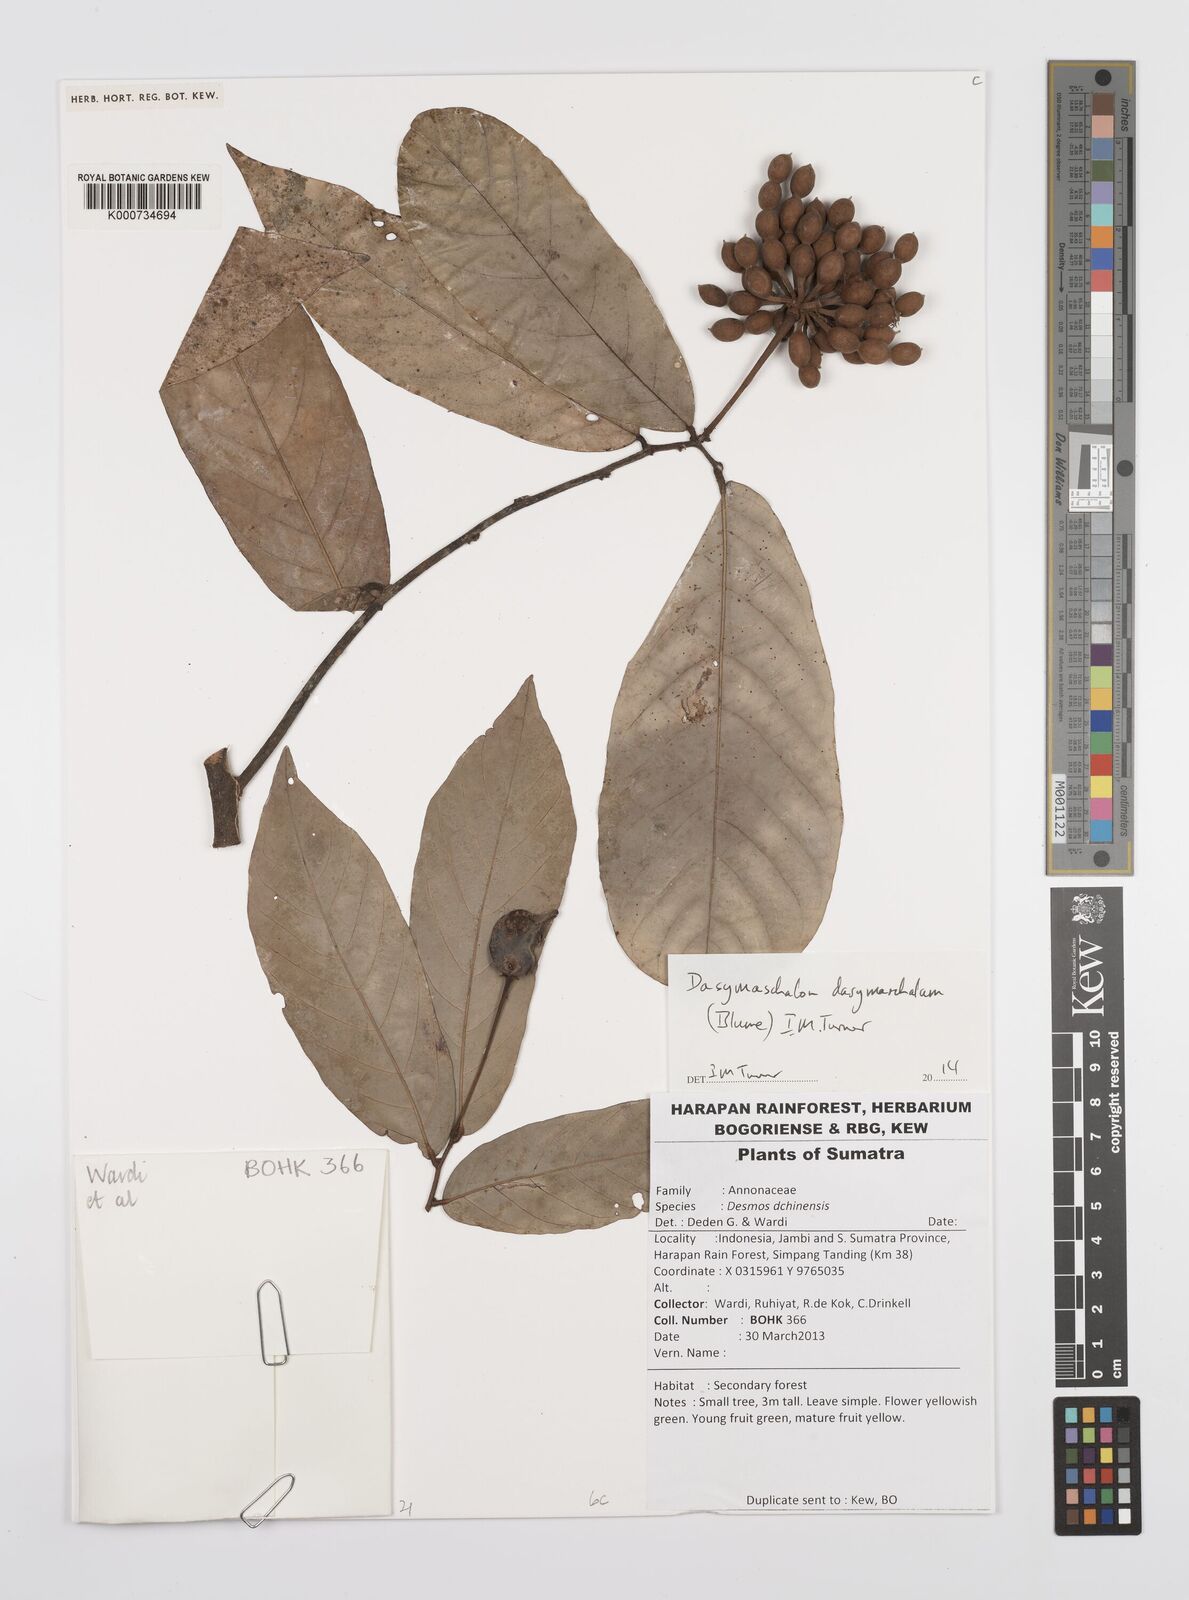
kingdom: Plantae
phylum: Tracheophyta
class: Magnoliopsida
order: Magnoliales
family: Annonaceae
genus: Dasymaschalon
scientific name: Dasymaschalon dasymaschalum
